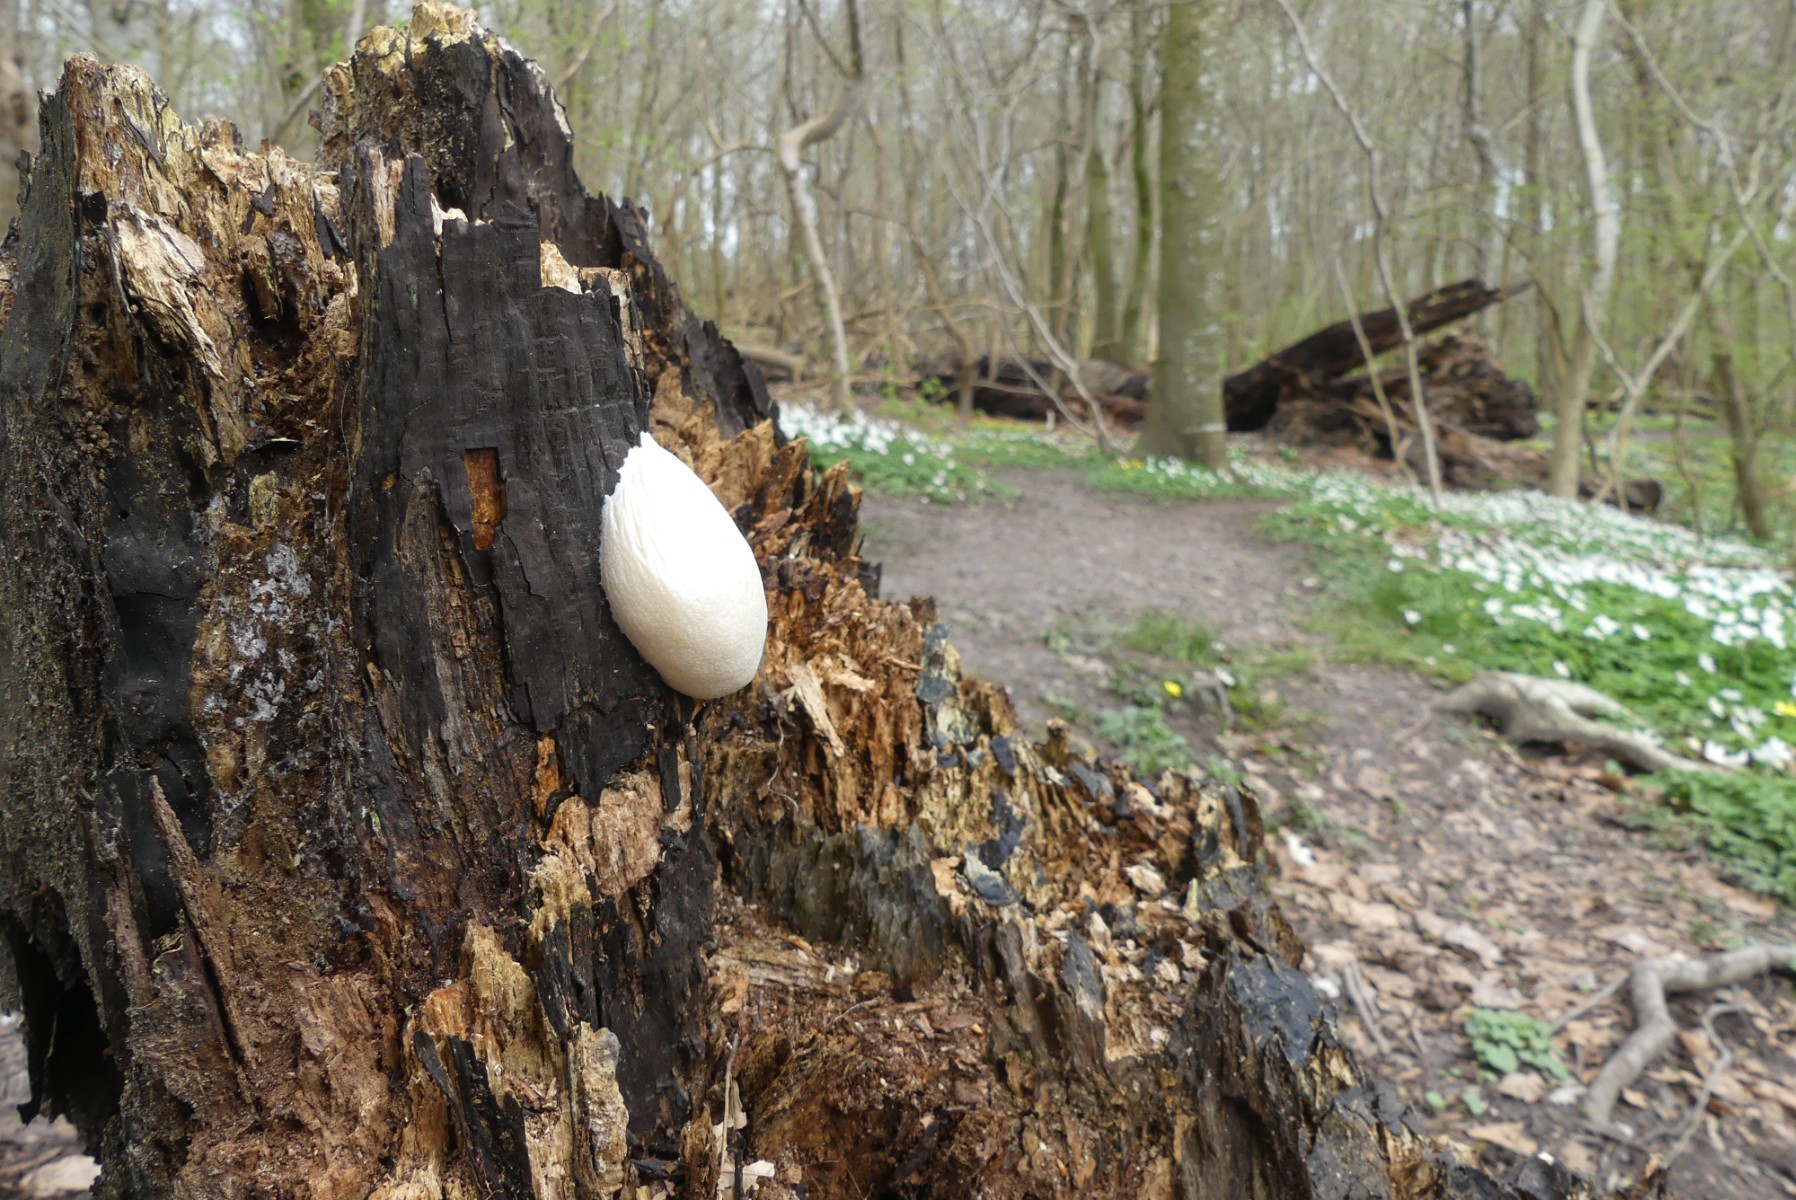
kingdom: Protozoa
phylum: Mycetozoa
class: Myxomycetes
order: Cribrariales
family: Tubiferaceae
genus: Reticularia
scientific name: Reticularia lycoperdon
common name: skinnende støvpude
